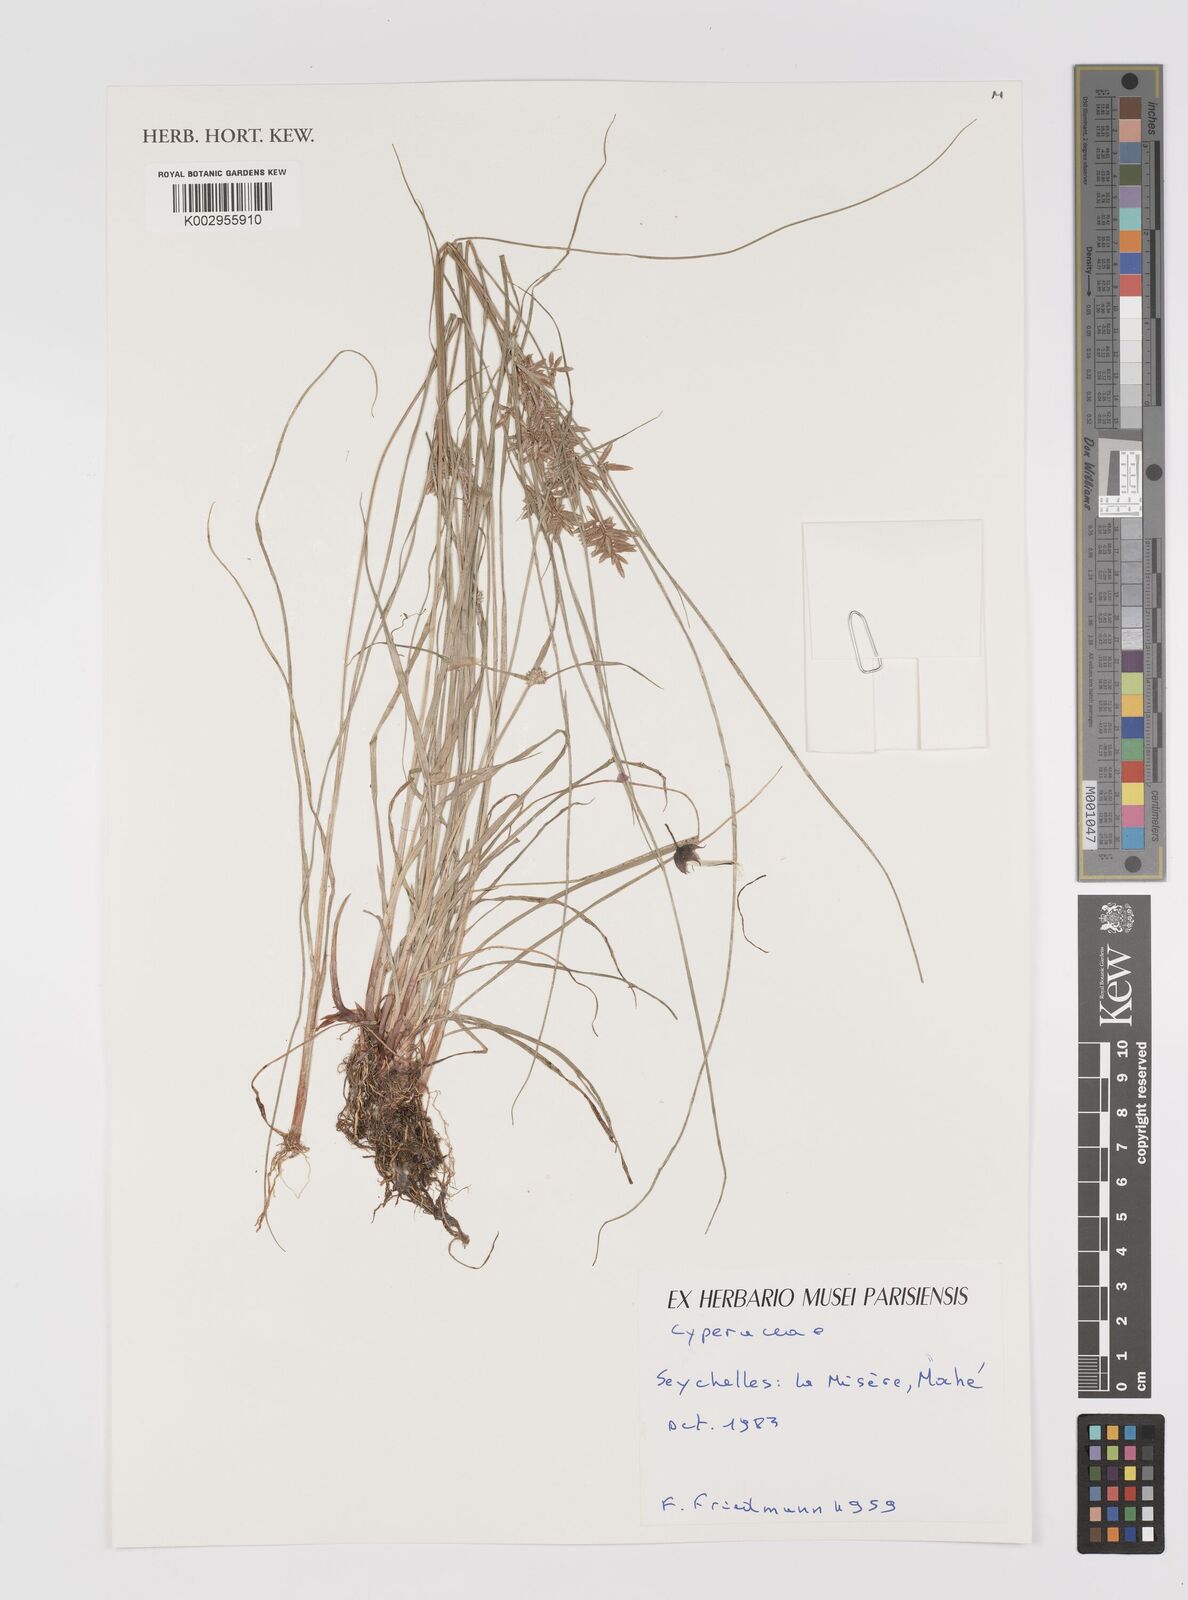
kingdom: Plantae
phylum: Tracheophyta
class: Liliopsida
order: Poales
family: Cyperaceae
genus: Cyperus
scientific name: Cyperus
